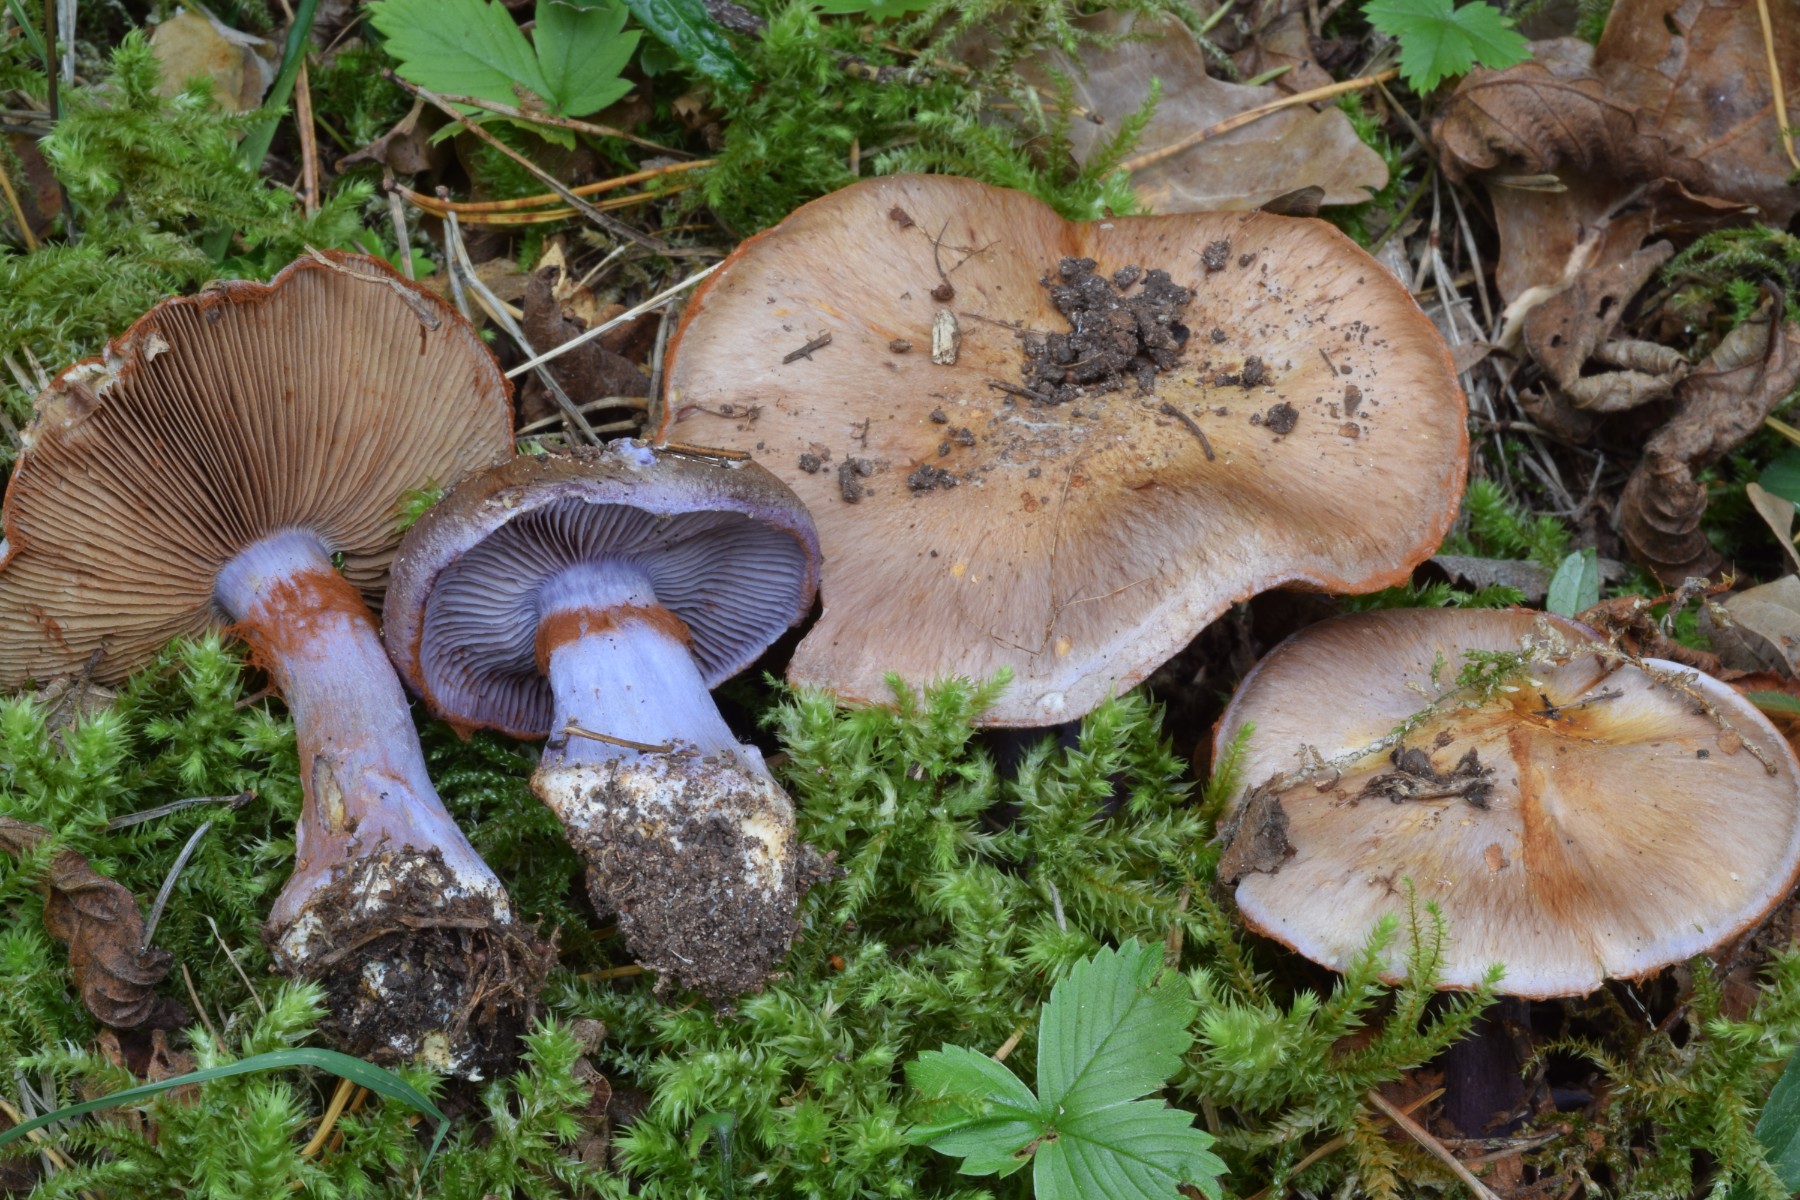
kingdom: Fungi
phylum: Basidiomycota
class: Agaricomycetes
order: Agaricales
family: Cortinariaceae
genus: Phlegmacium
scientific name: Phlegmacium prasinocyaneum
